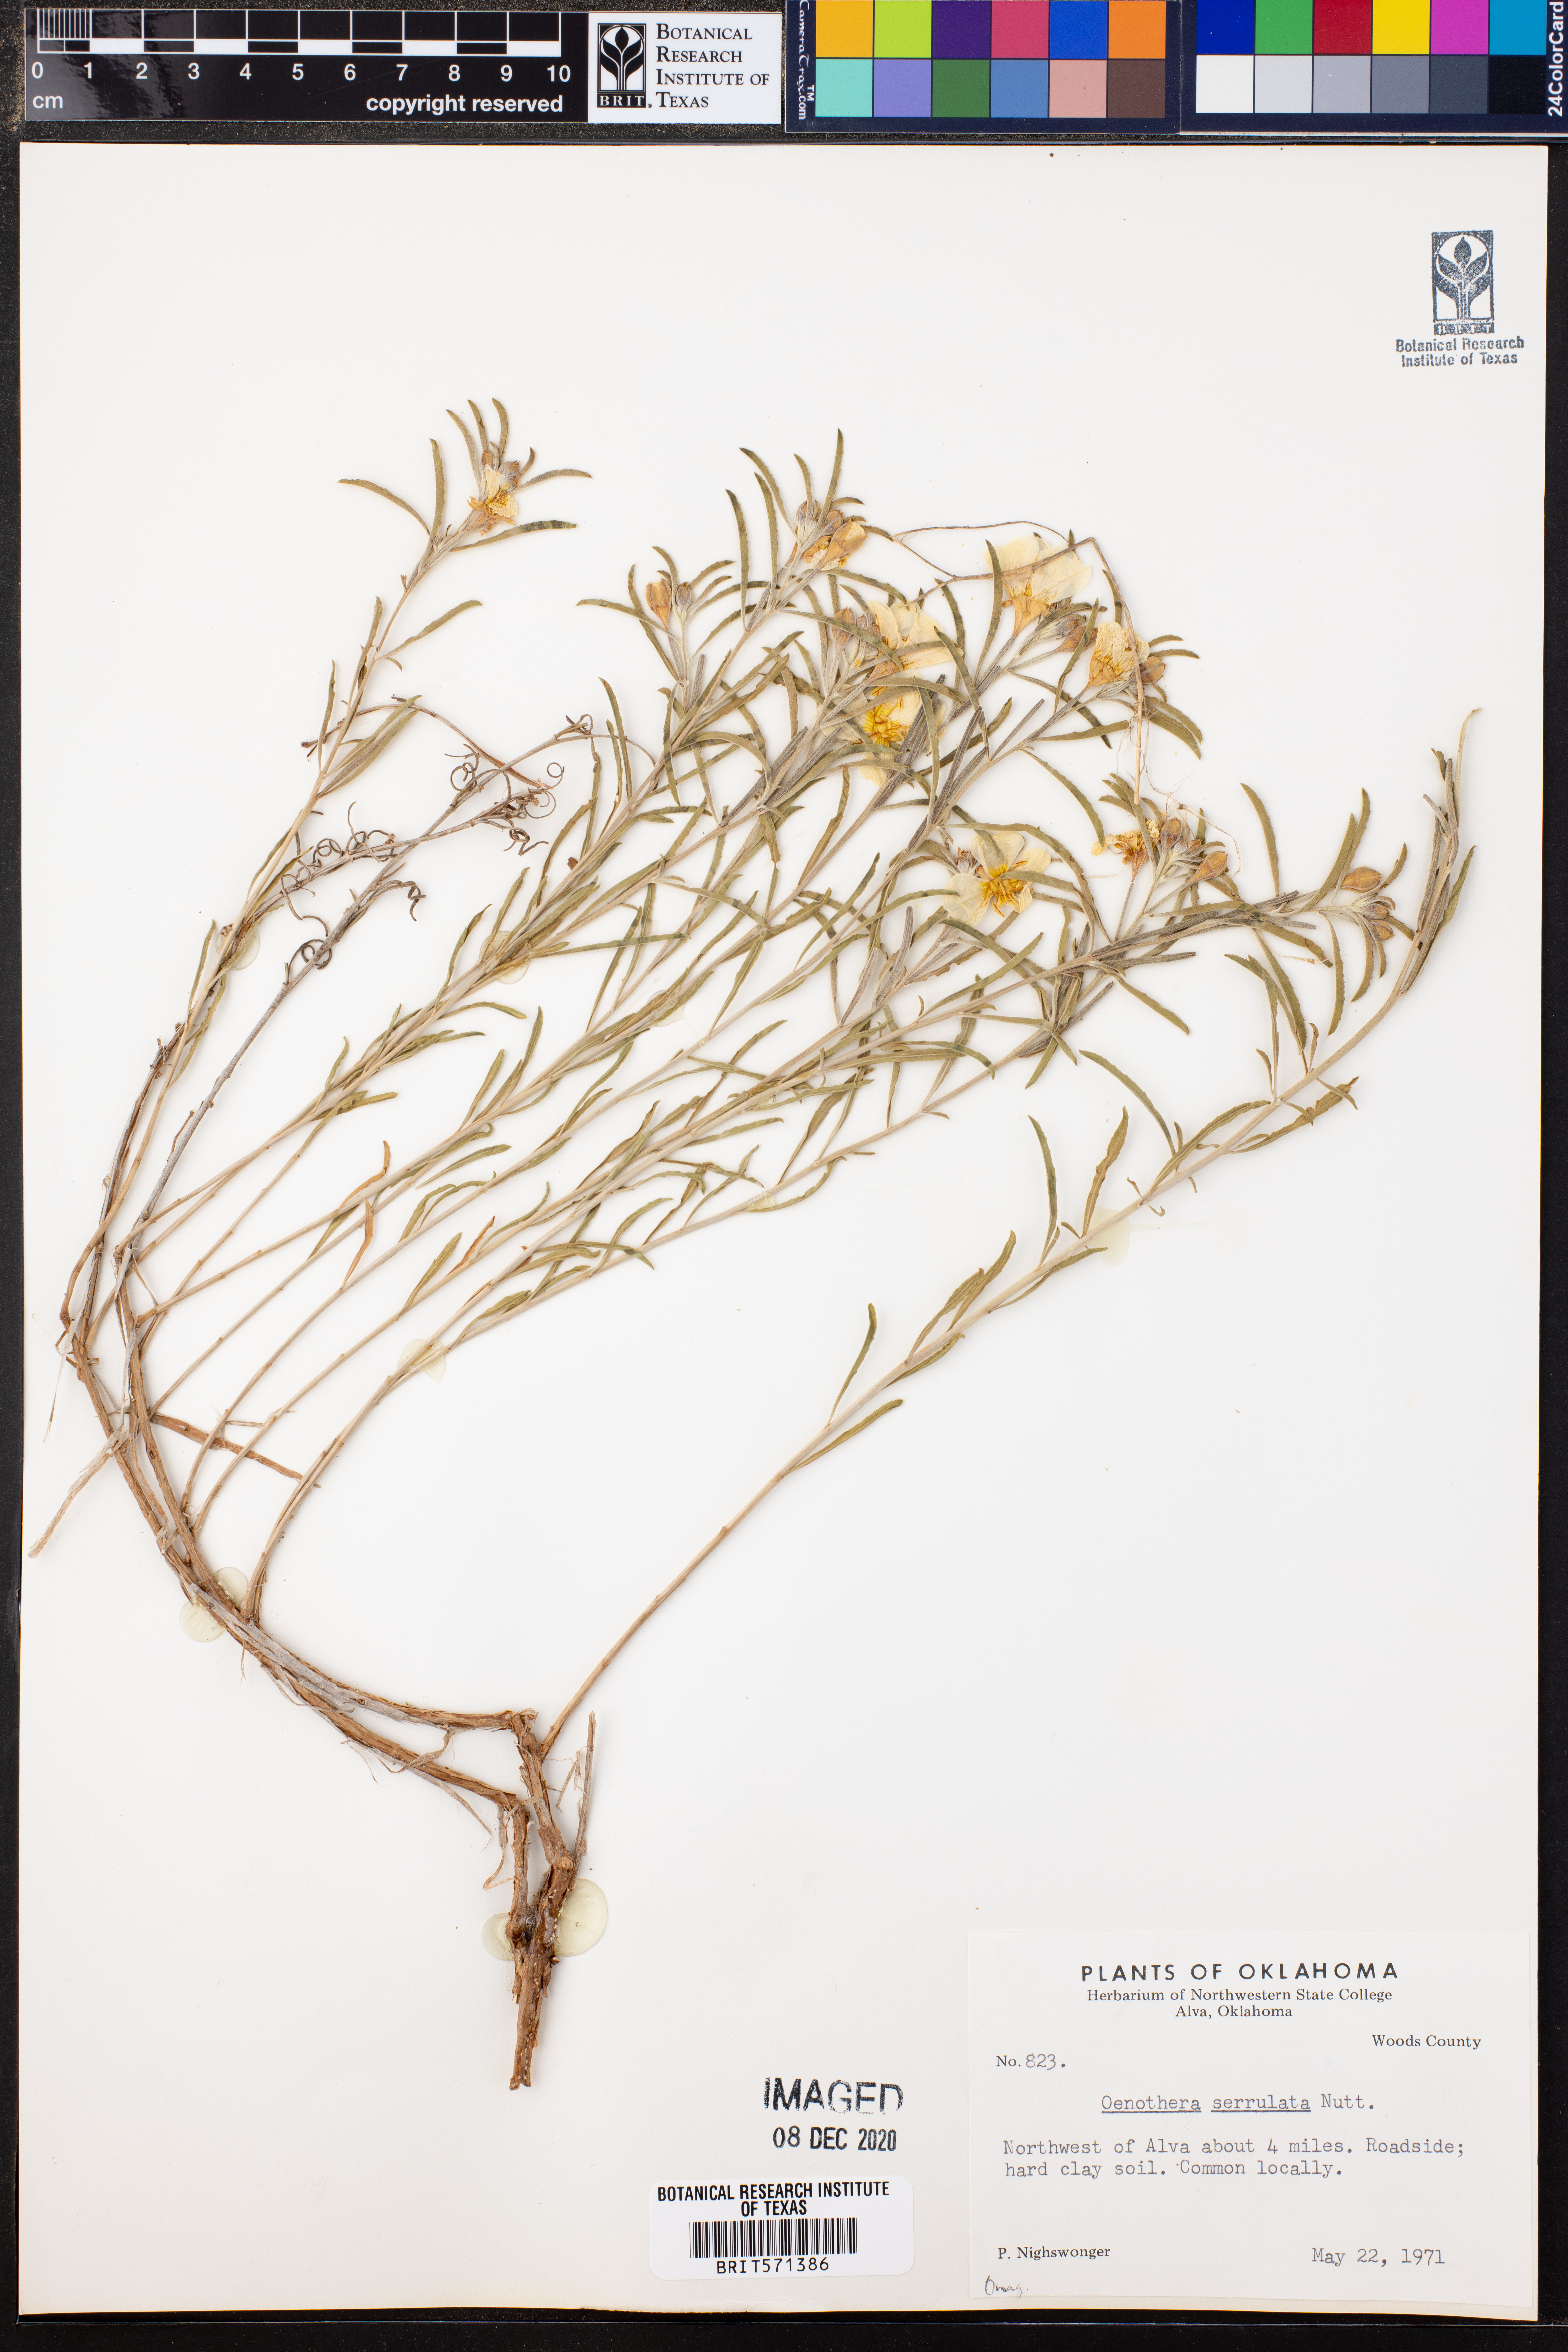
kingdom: Plantae
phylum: Tracheophyta
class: Magnoliopsida
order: Myrtales
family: Onagraceae
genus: Oenothera
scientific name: Oenothera serrulata
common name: Half-shrub calylophus
